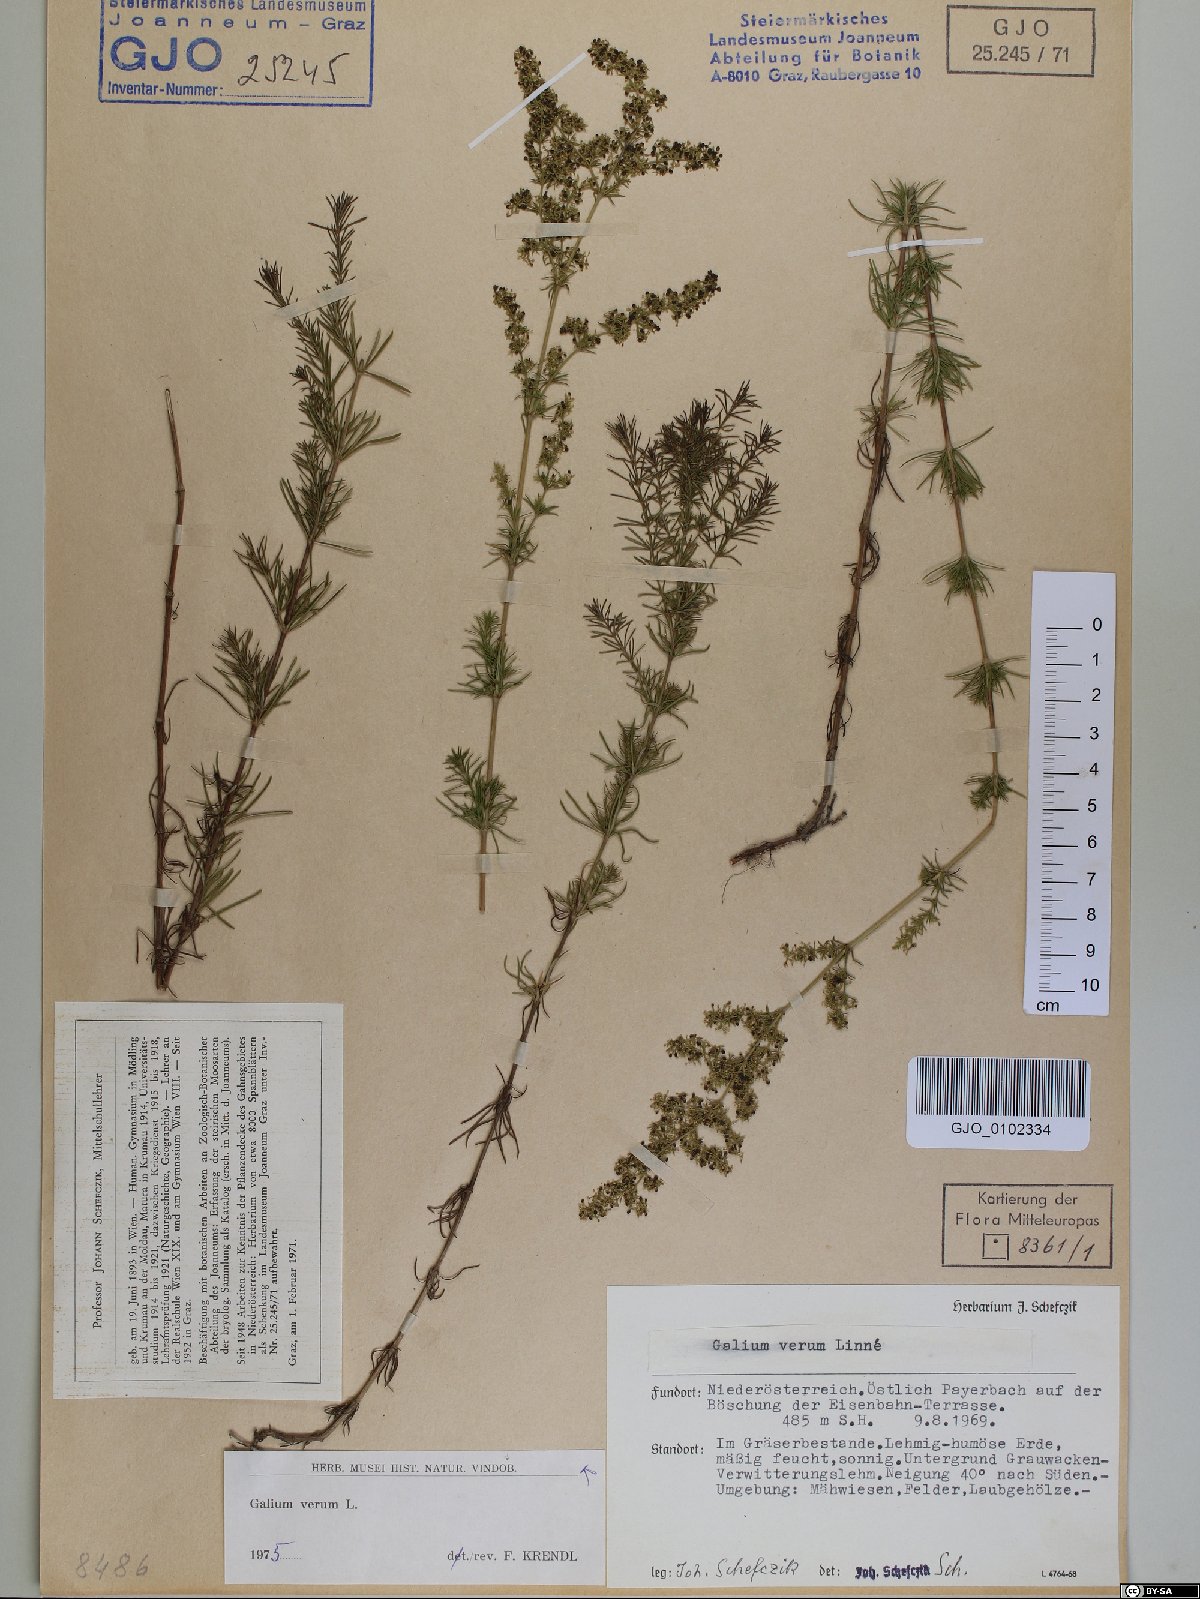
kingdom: Plantae
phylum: Tracheophyta
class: Magnoliopsida
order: Gentianales
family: Rubiaceae
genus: Galium
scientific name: Galium verum
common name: Lady's bedstraw
